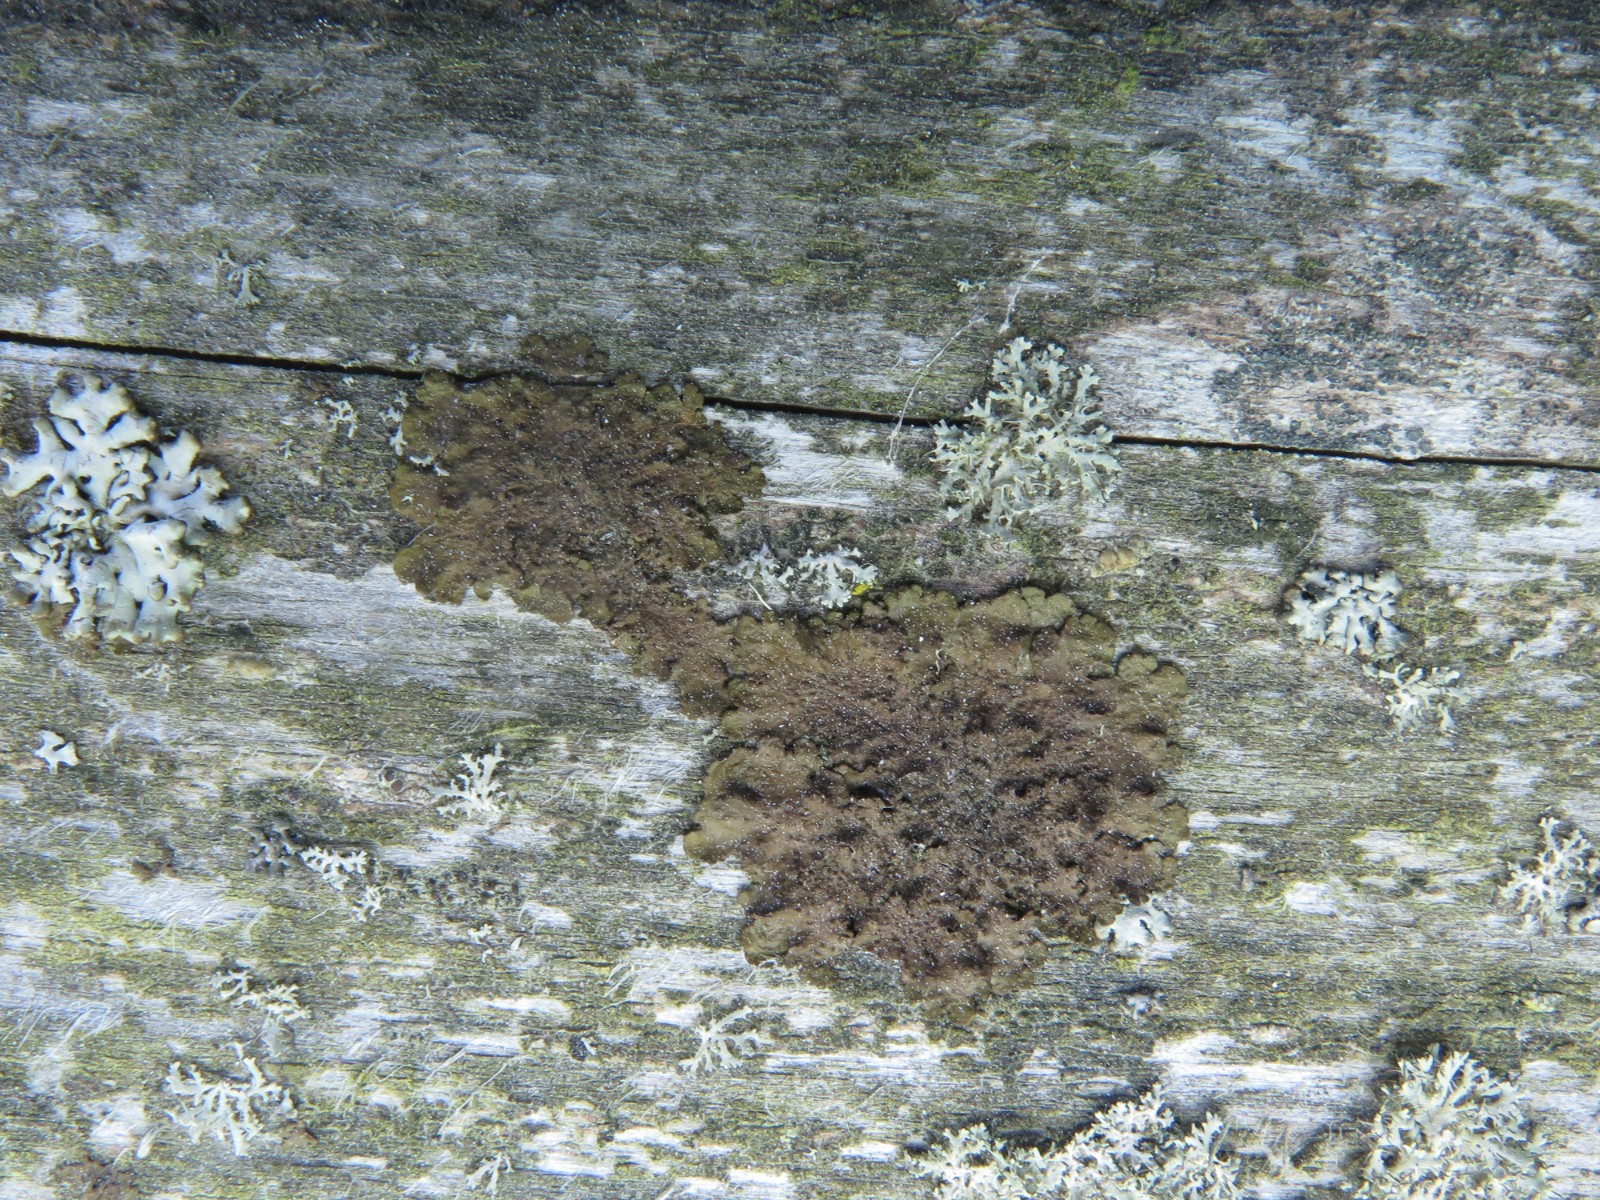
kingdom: Fungi
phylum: Ascomycota
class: Lecanoromycetes
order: Lecanorales
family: Parmeliaceae
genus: Melanelixia
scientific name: Melanelixia subaurifera
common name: guldpudret skållav
